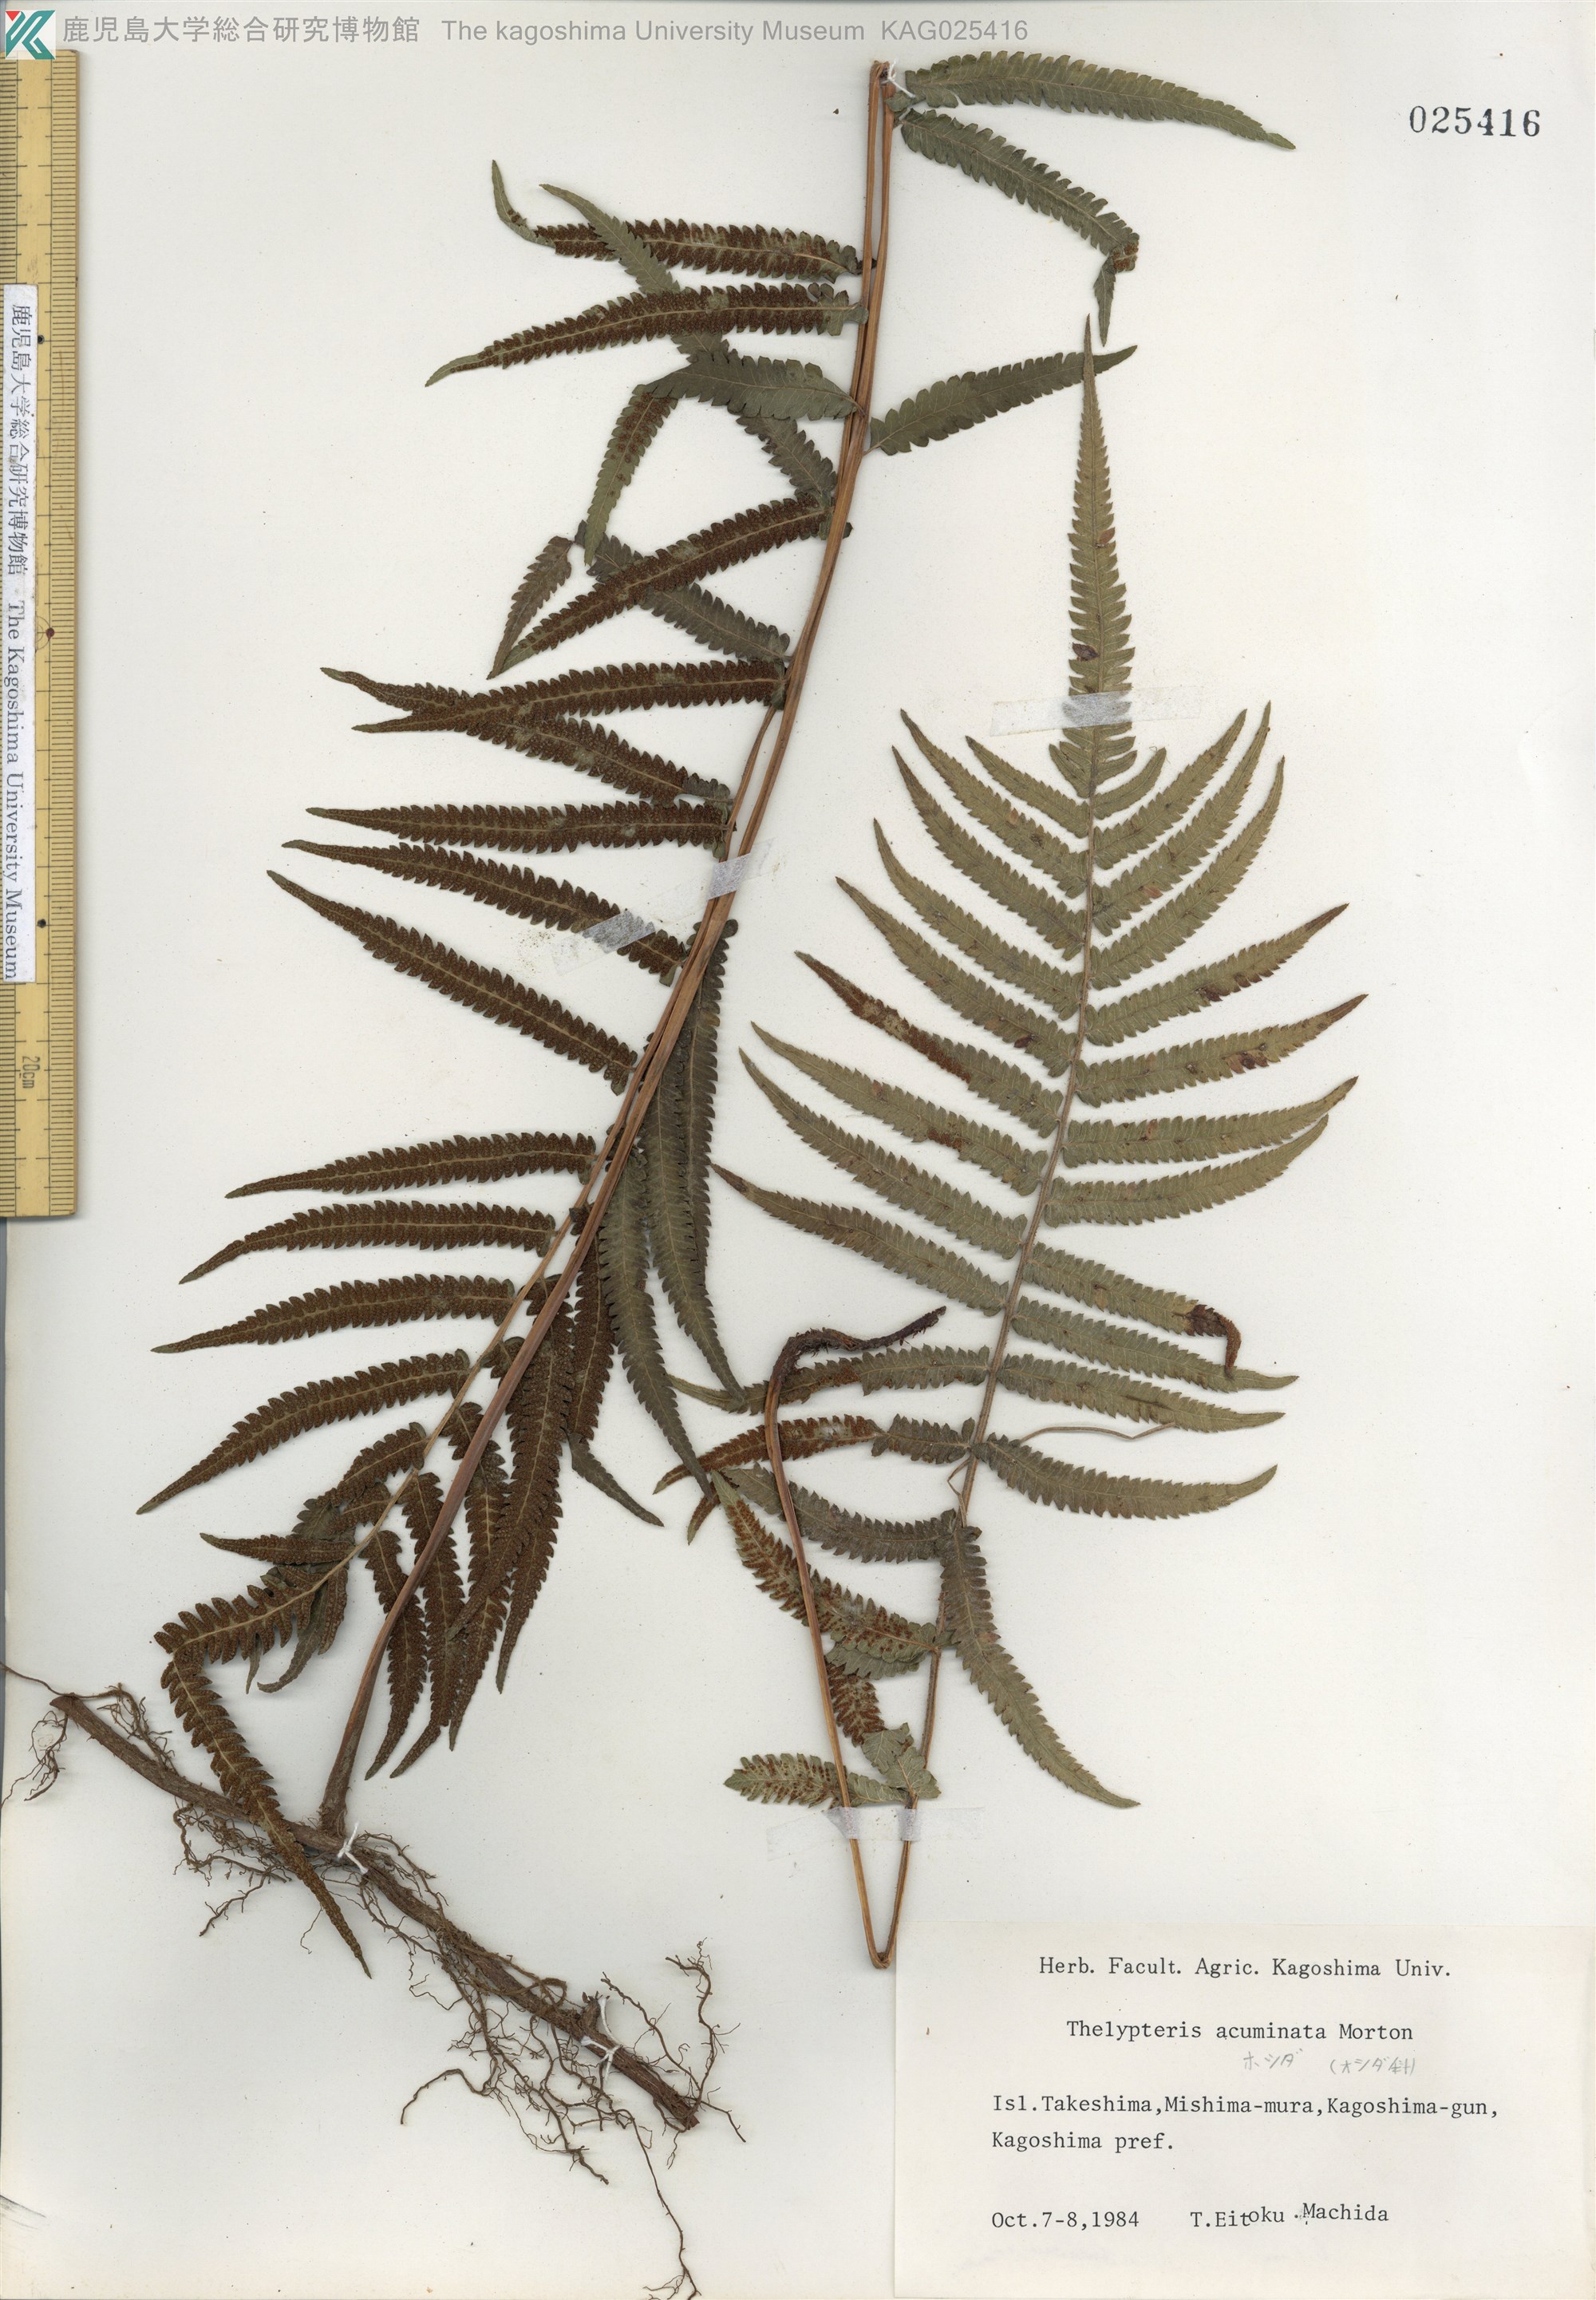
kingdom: Plantae
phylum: Tracheophyta
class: Polypodiopsida
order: Polypodiales
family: Thelypteridaceae
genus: Christella
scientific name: Christella acuminata
